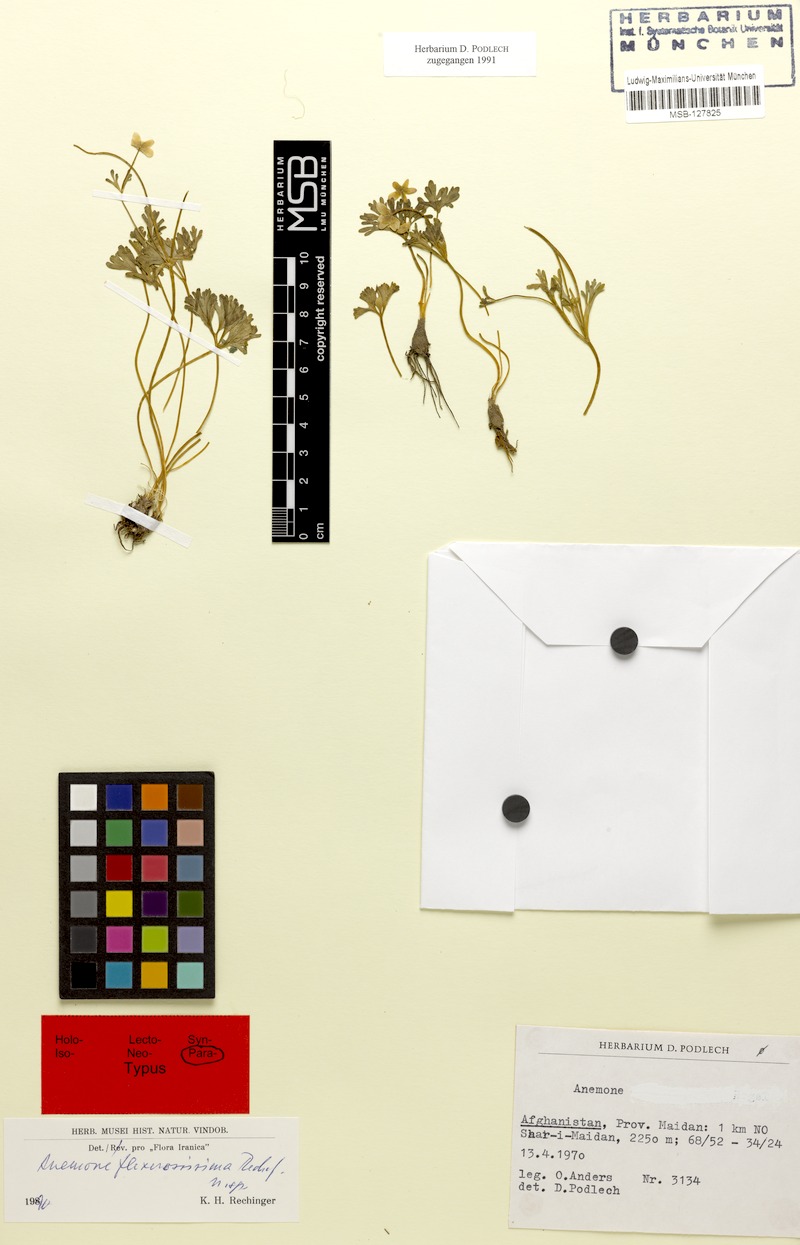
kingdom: Plantae
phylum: Tracheophyta
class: Magnoliopsida
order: Ranunculales
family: Ranunculaceae
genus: Anemone
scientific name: Anemone biflora
